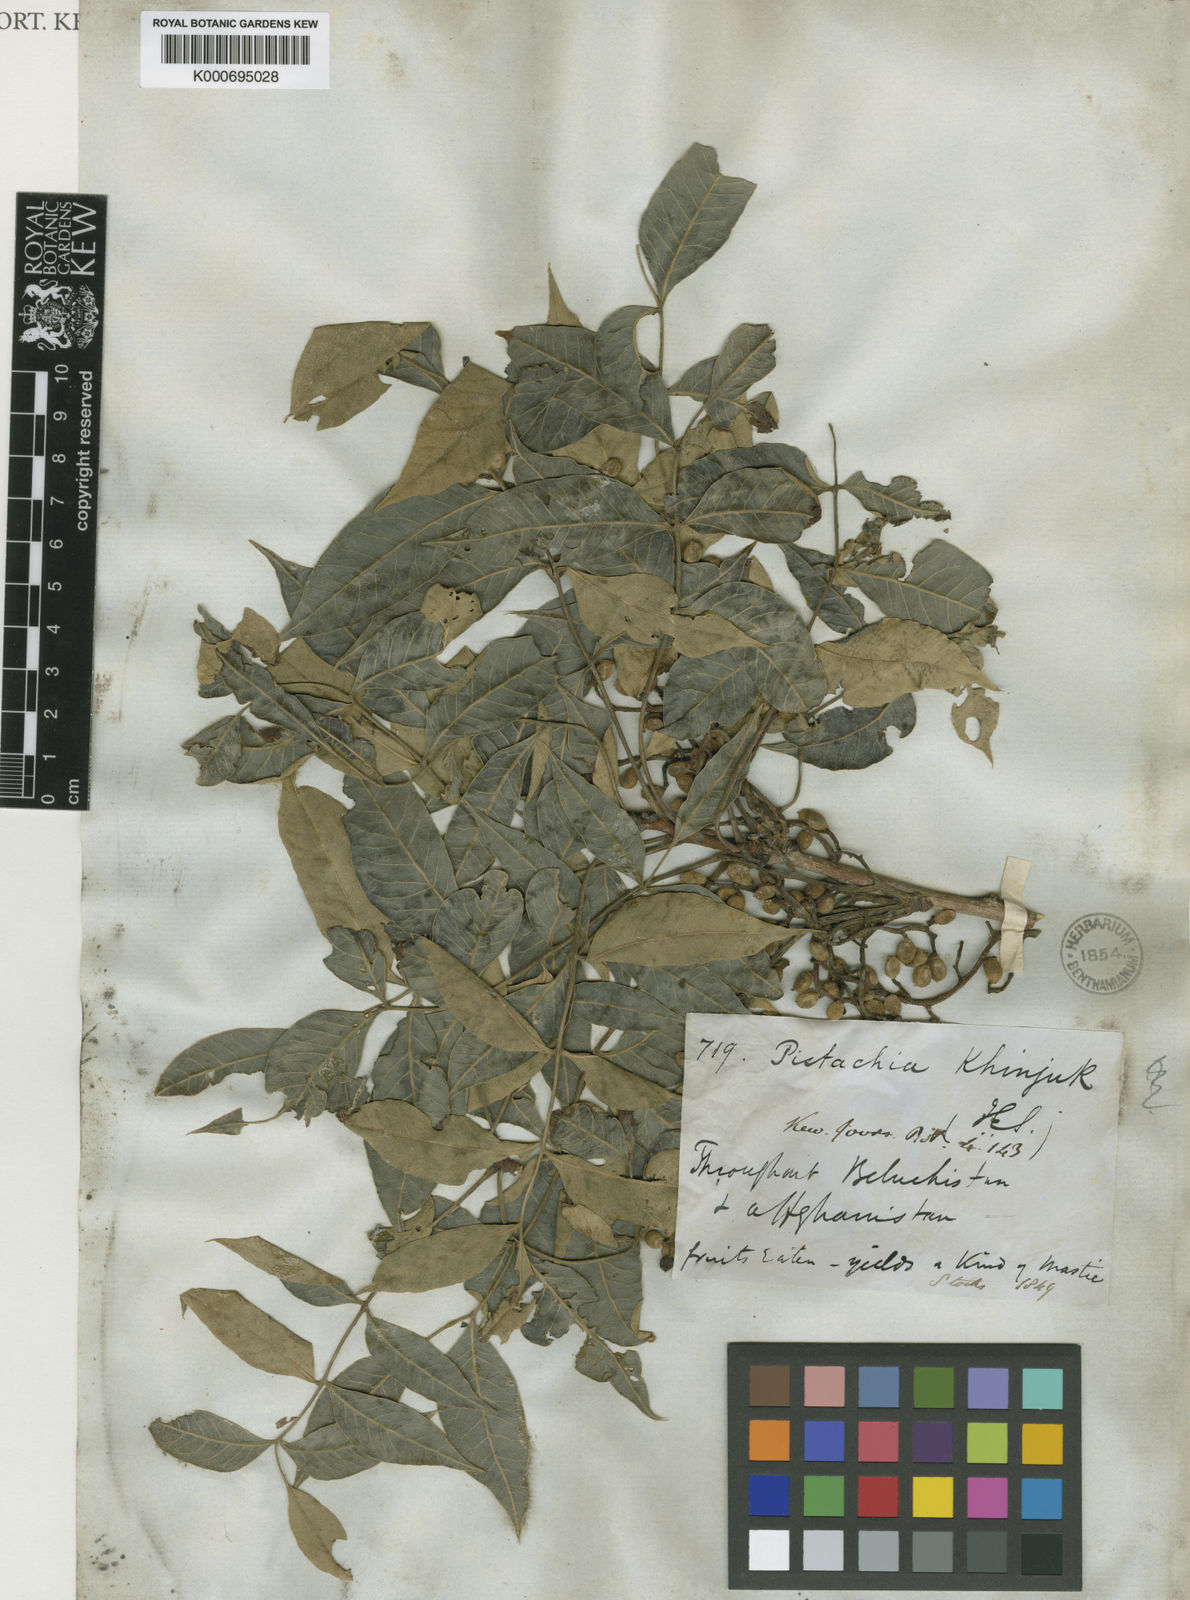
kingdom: Plantae
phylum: Tracheophyta
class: Magnoliopsida
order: Sapindales
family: Anacardiaceae
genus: Pistacia
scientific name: Pistacia khinjuk
